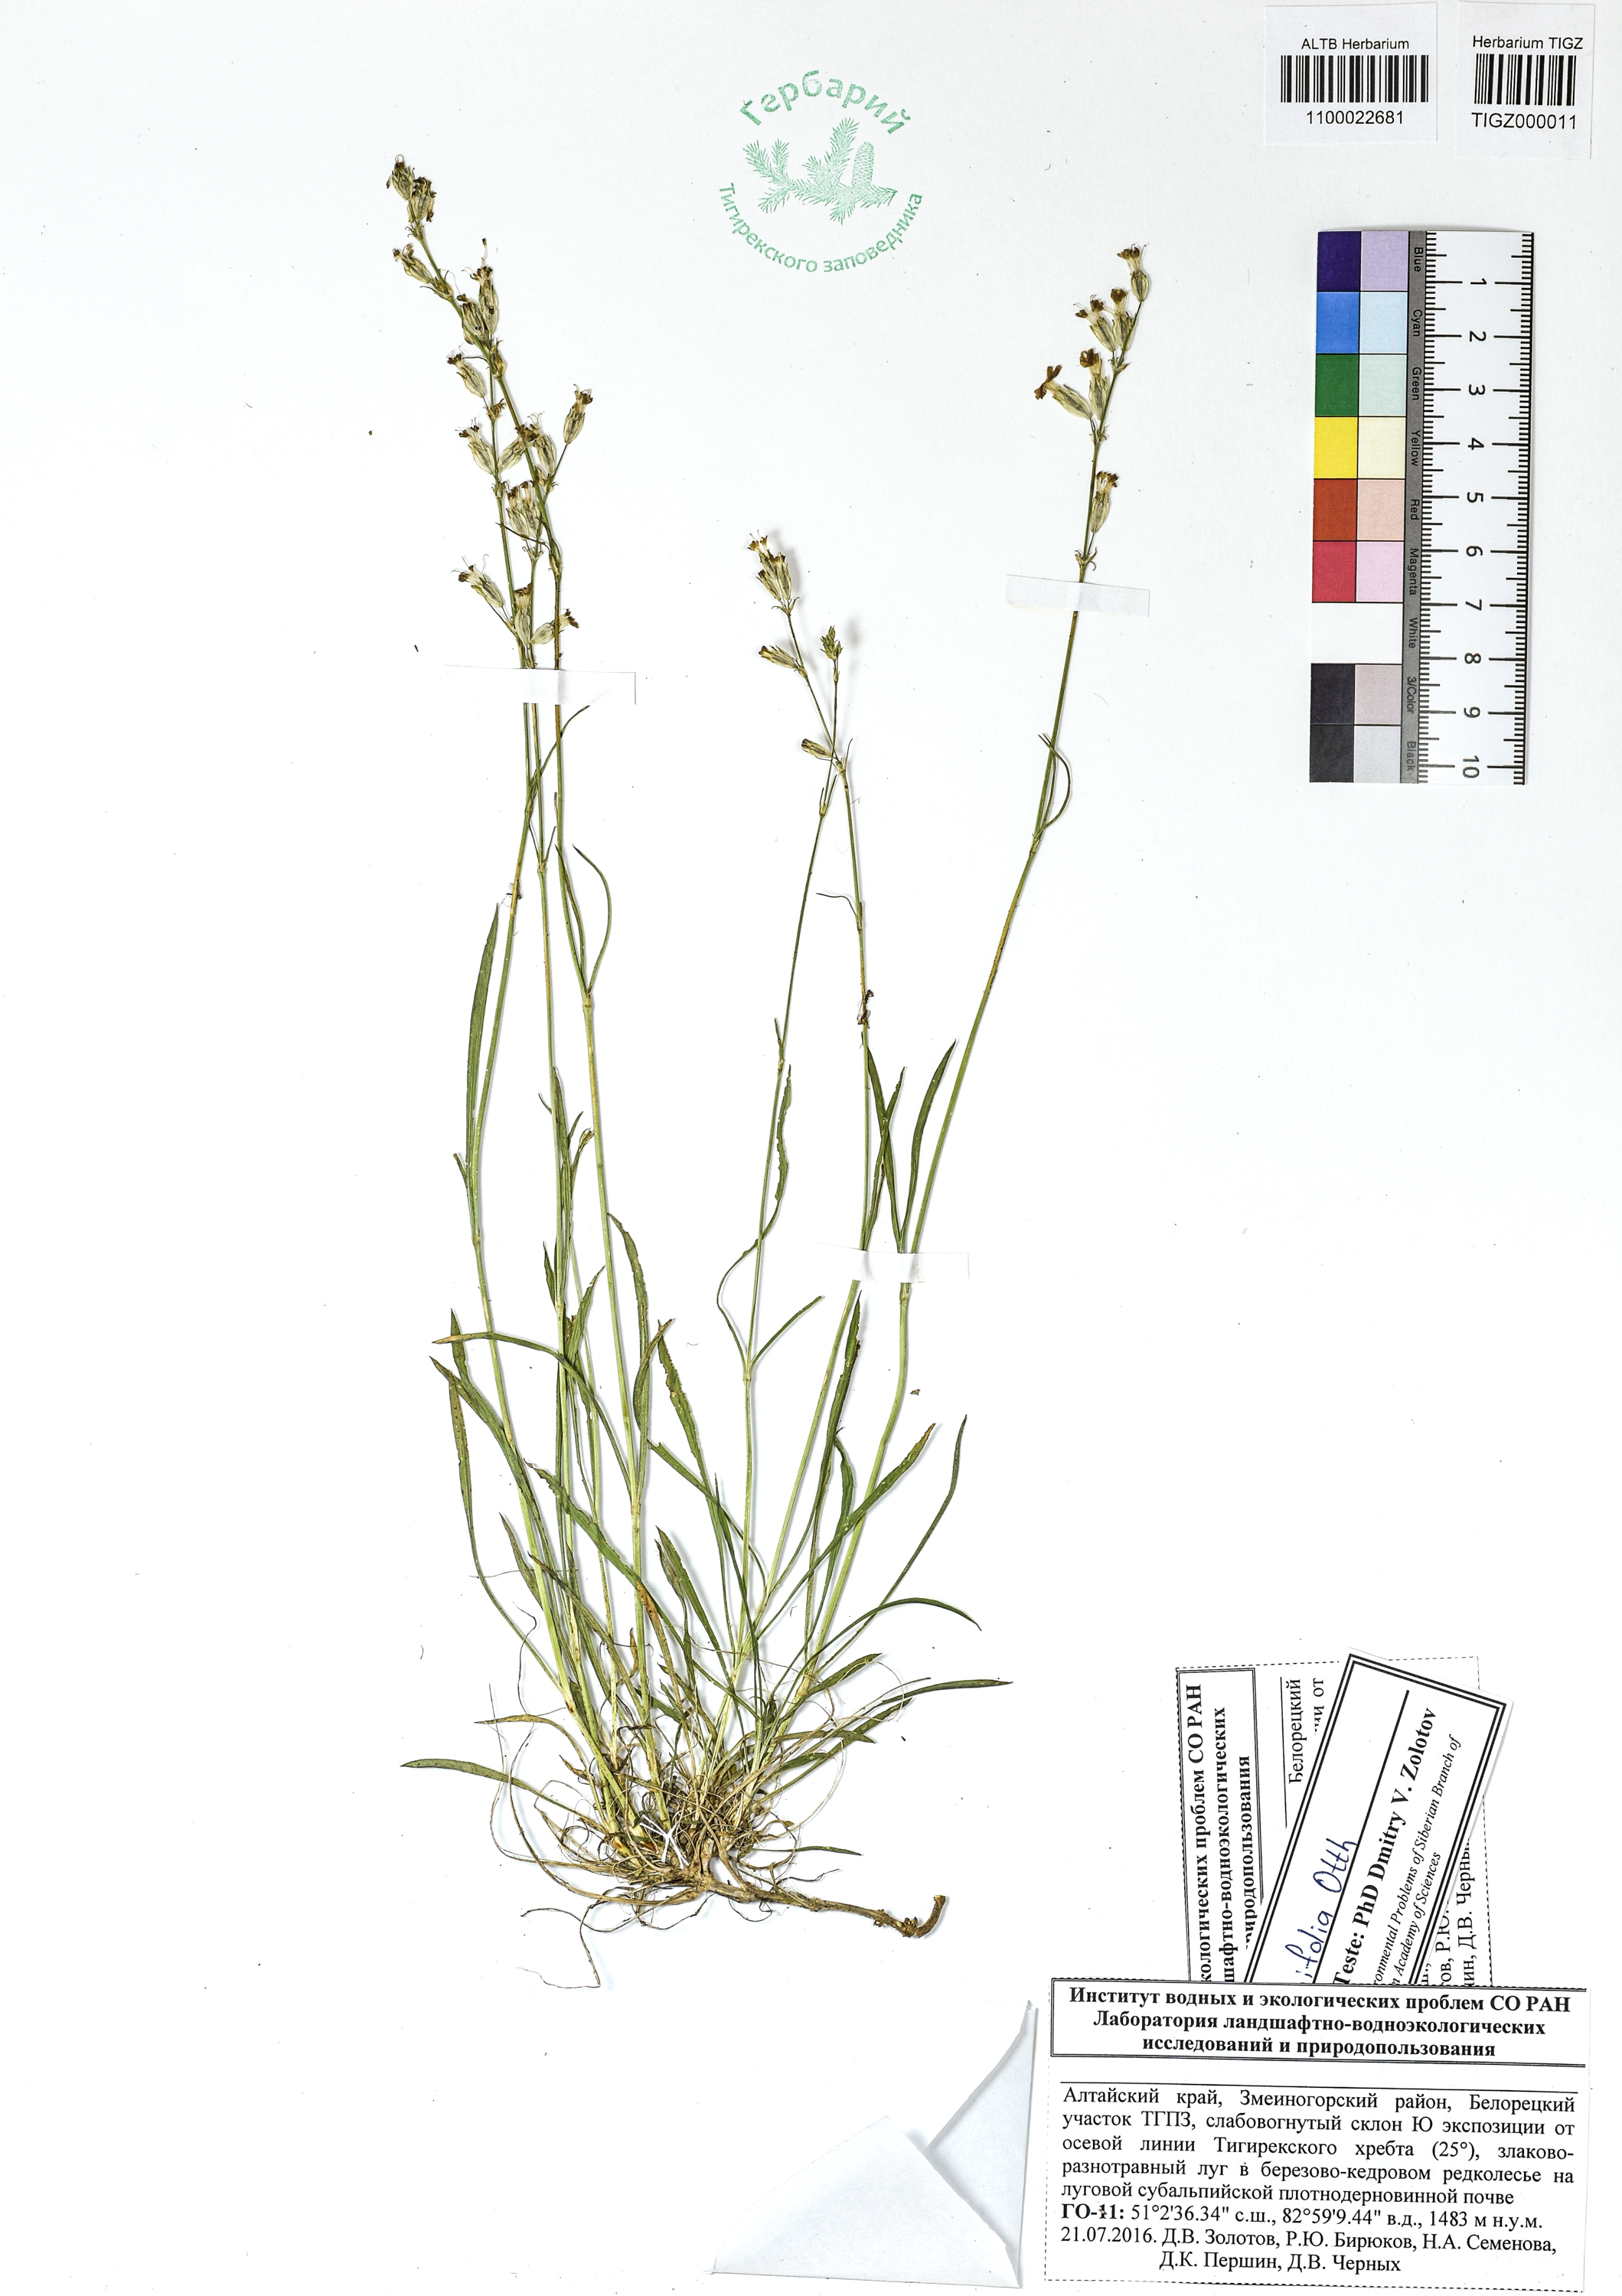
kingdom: Plantae
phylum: Tracheophyta
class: Magnoliopsida
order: Caryophyllales
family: Caryophyllaceae
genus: Silene
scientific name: Silene graminifolia
